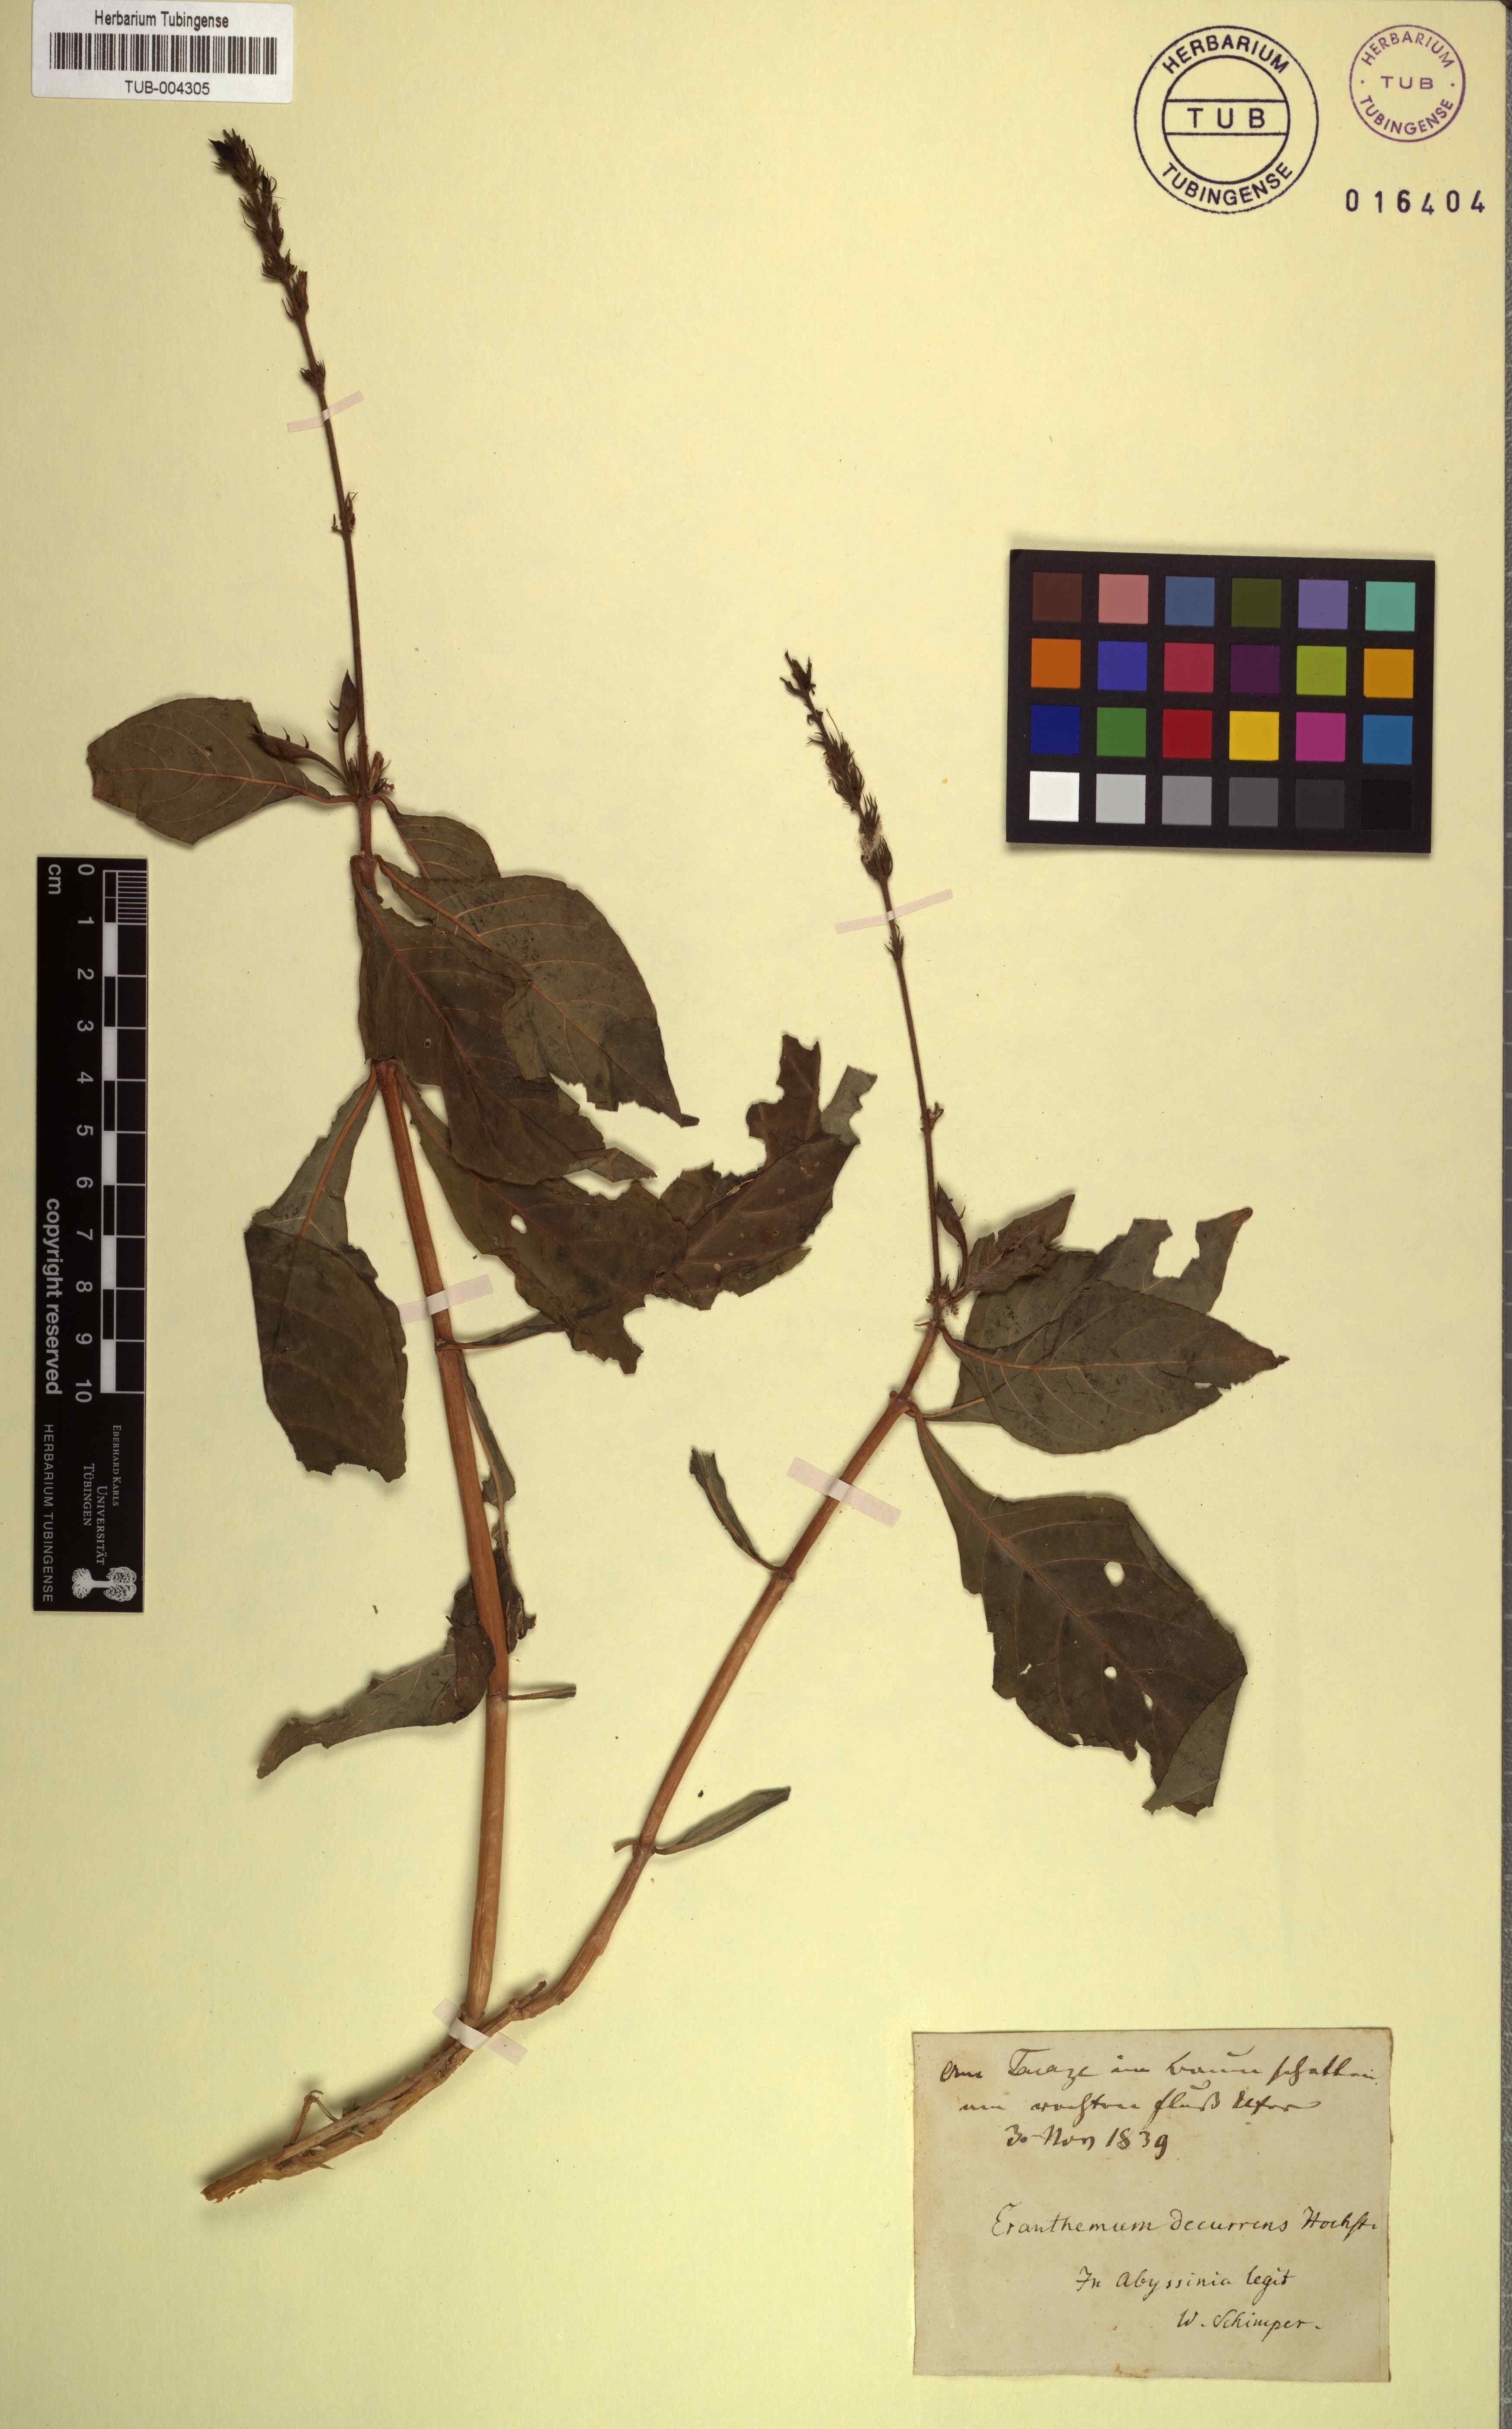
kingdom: Plantae
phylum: Tracheophyta
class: Magnoliopsida
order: Lamiales
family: Acanthaceae
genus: Ruspolia
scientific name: Ruspolia decurrens
